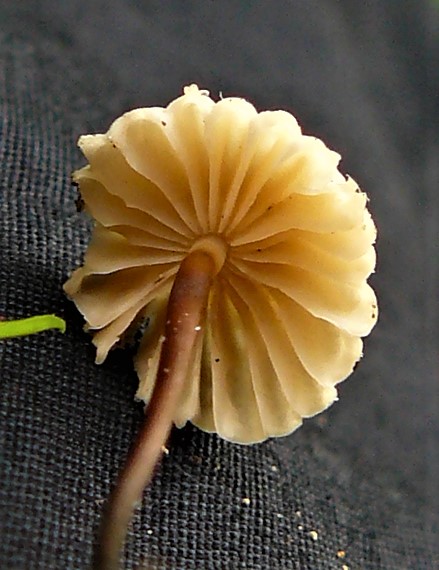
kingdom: Fungi
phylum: Basidiomycota
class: Agaricomycetes
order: Agaricales
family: Marasmiaceae
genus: Marasmius
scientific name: Marasmius rotula
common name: hjul-bruskhat
